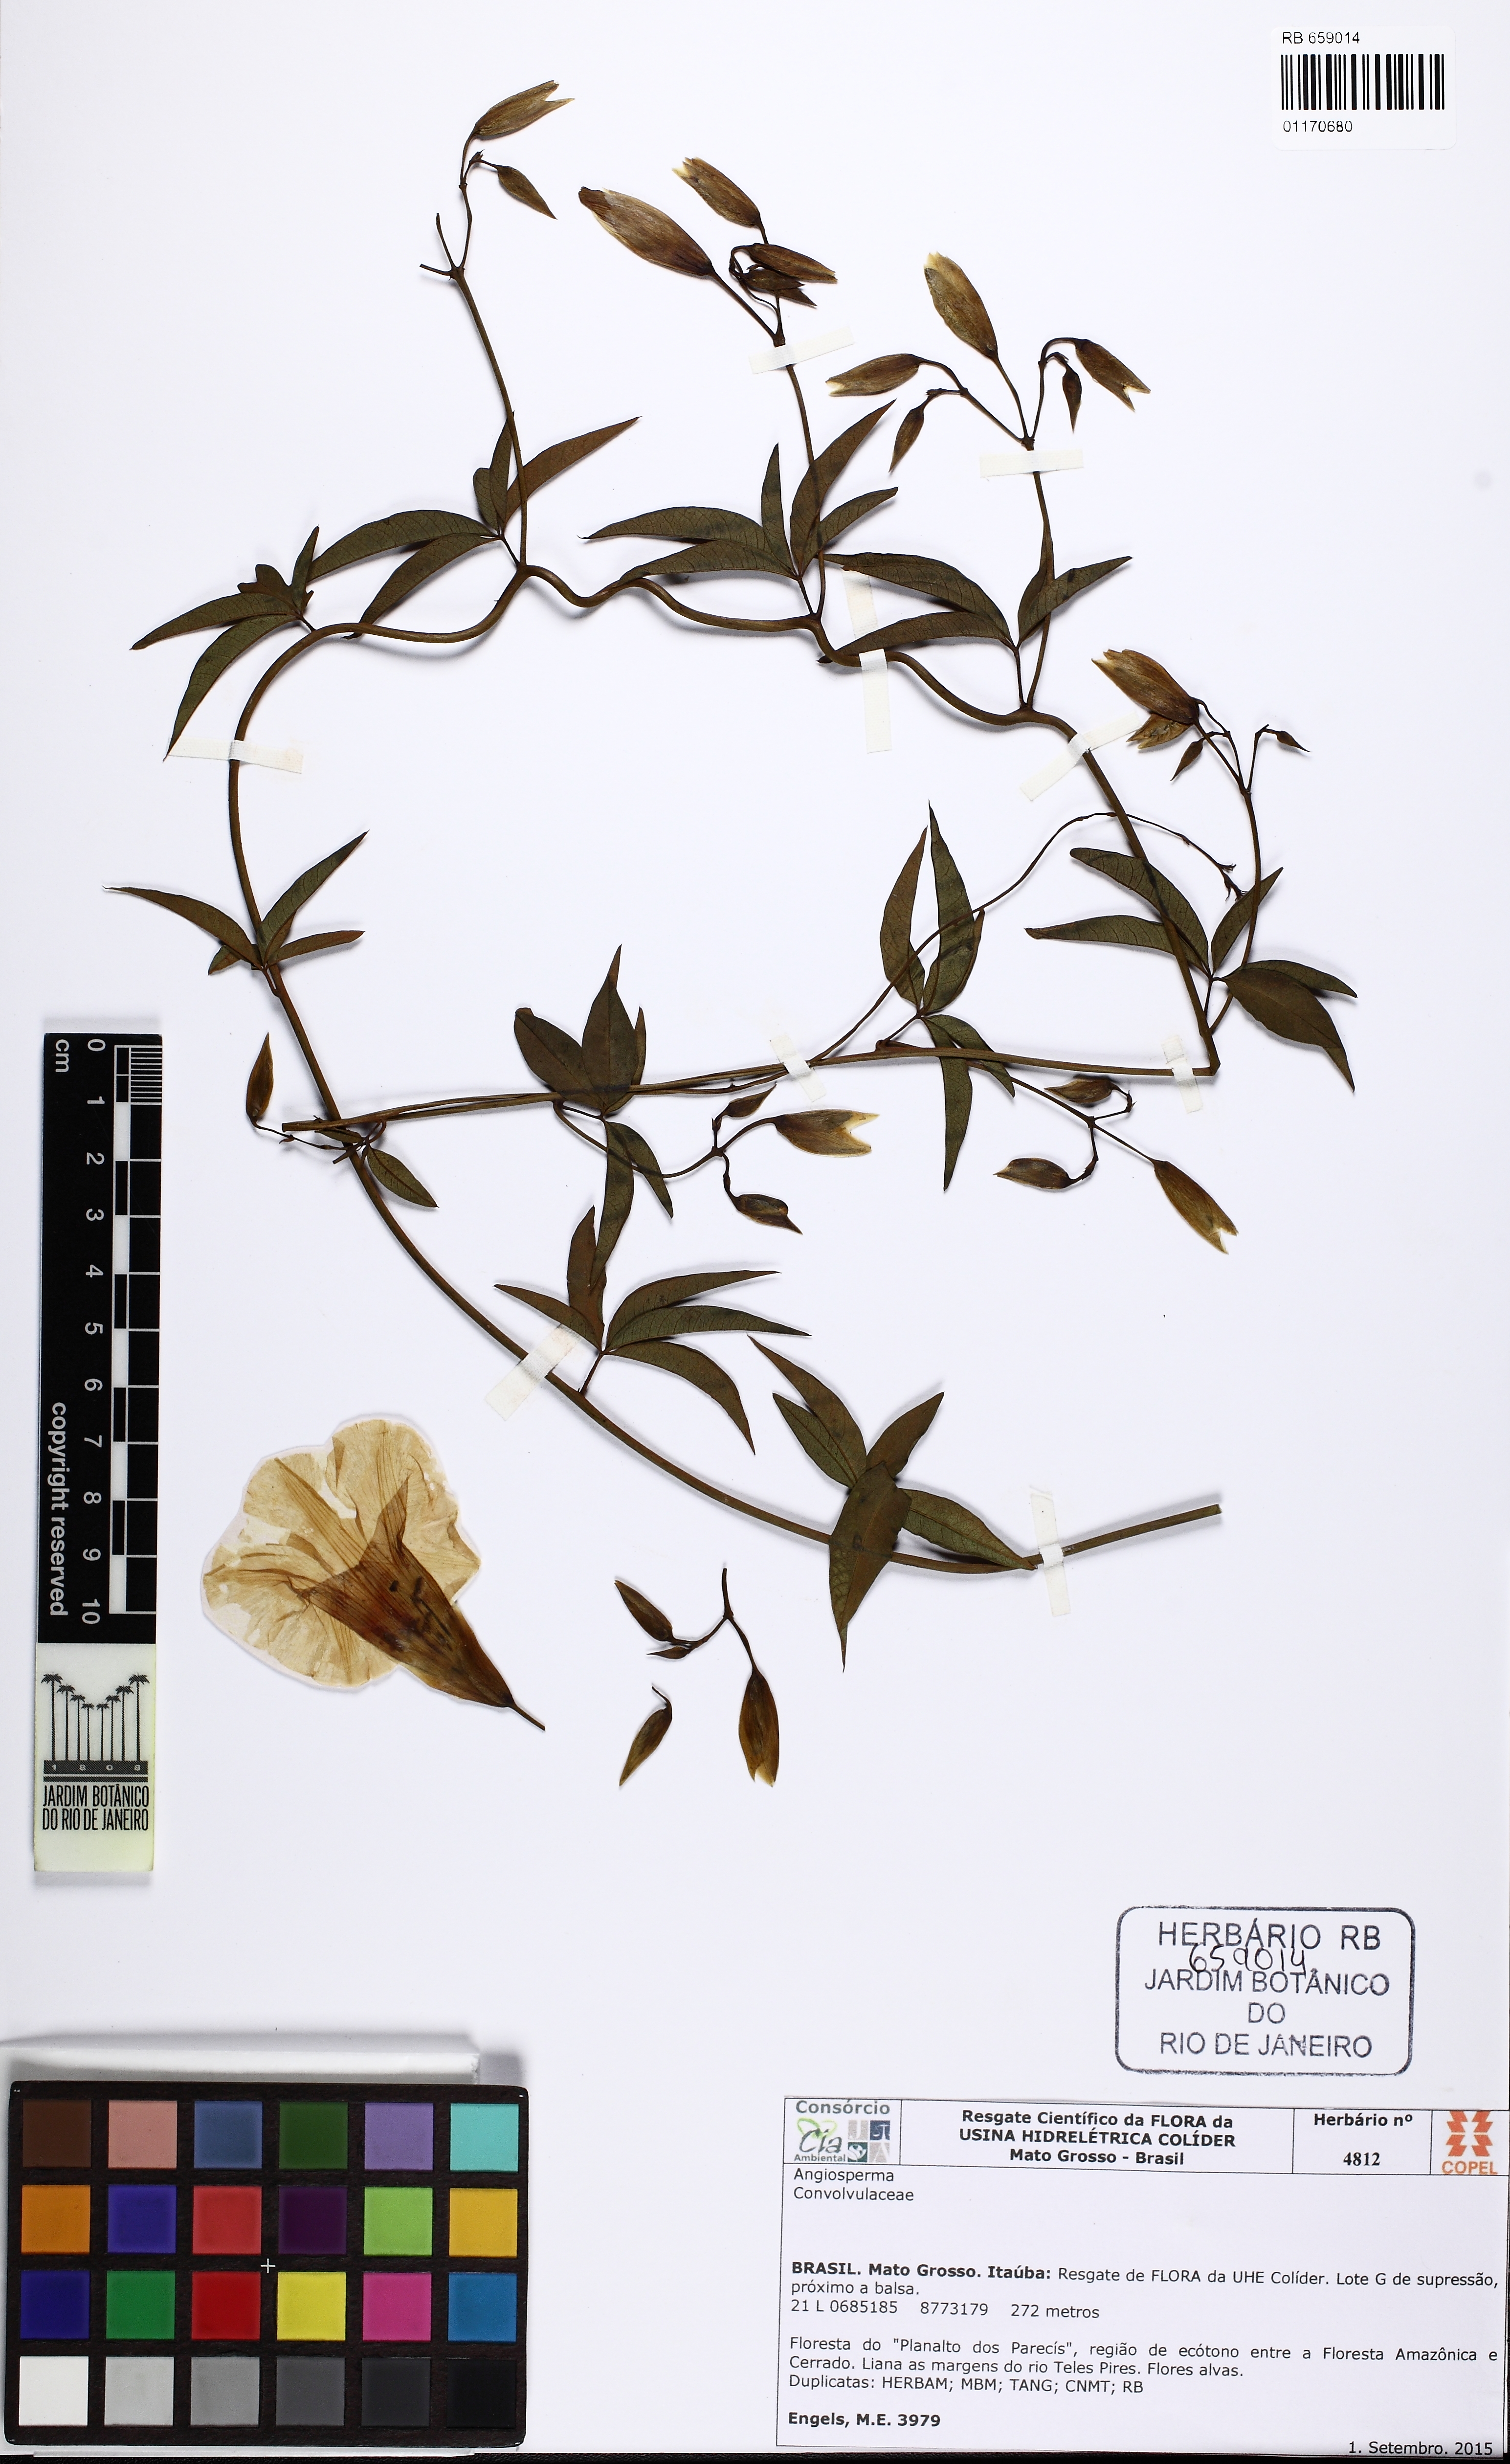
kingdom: Plantae
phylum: Tracheophyta
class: Magnoliopsida
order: Solanales
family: Convolvulaceae
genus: Distimake
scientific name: Distimake macrocalyx
